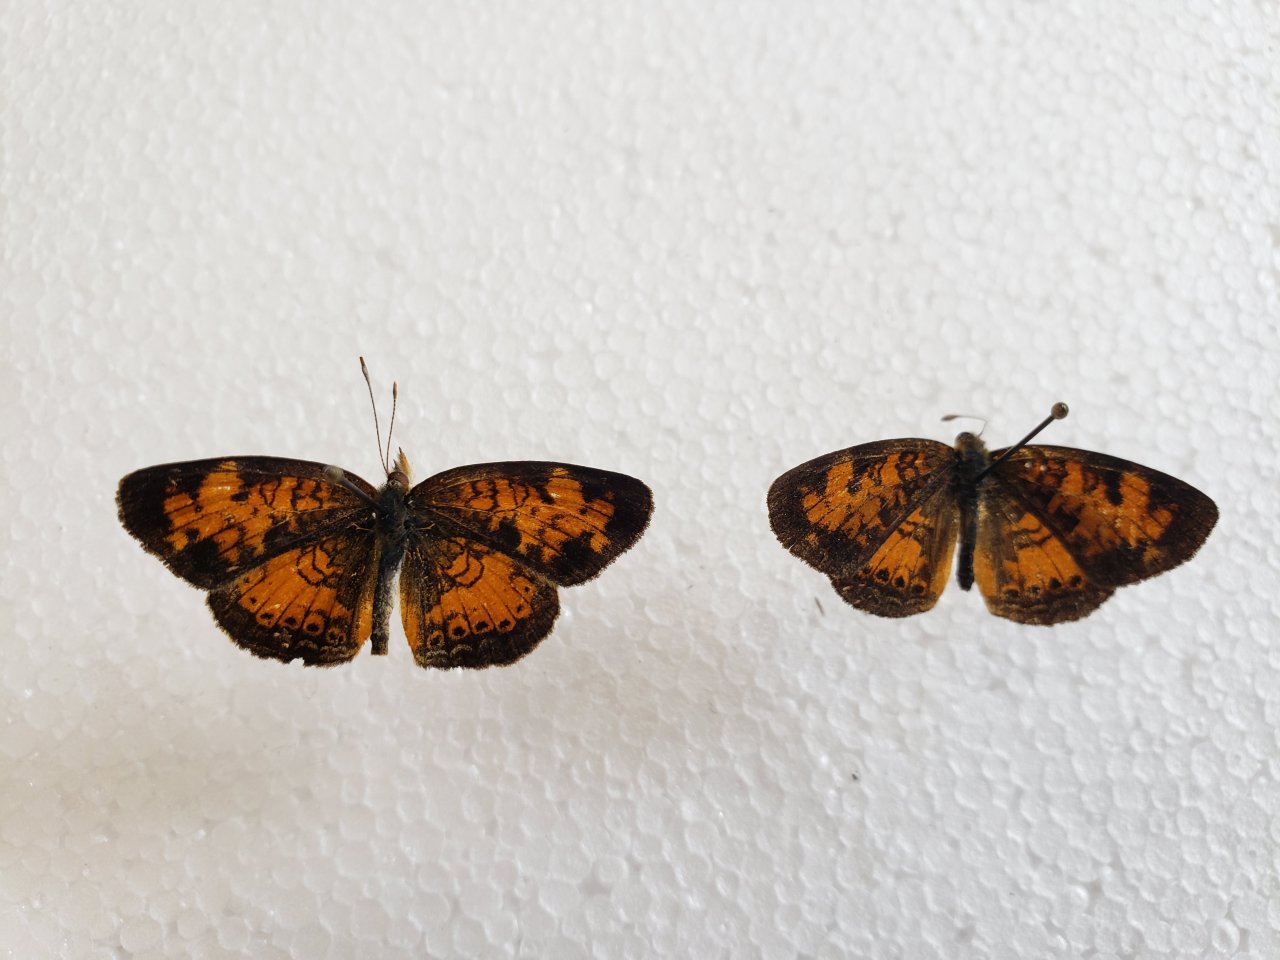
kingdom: Animalia
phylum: Arthropoda
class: Insecta
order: Lepidoptera
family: Nymphalidae
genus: Phyciodes
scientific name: Phyciodes tharos
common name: Northern Crescent
